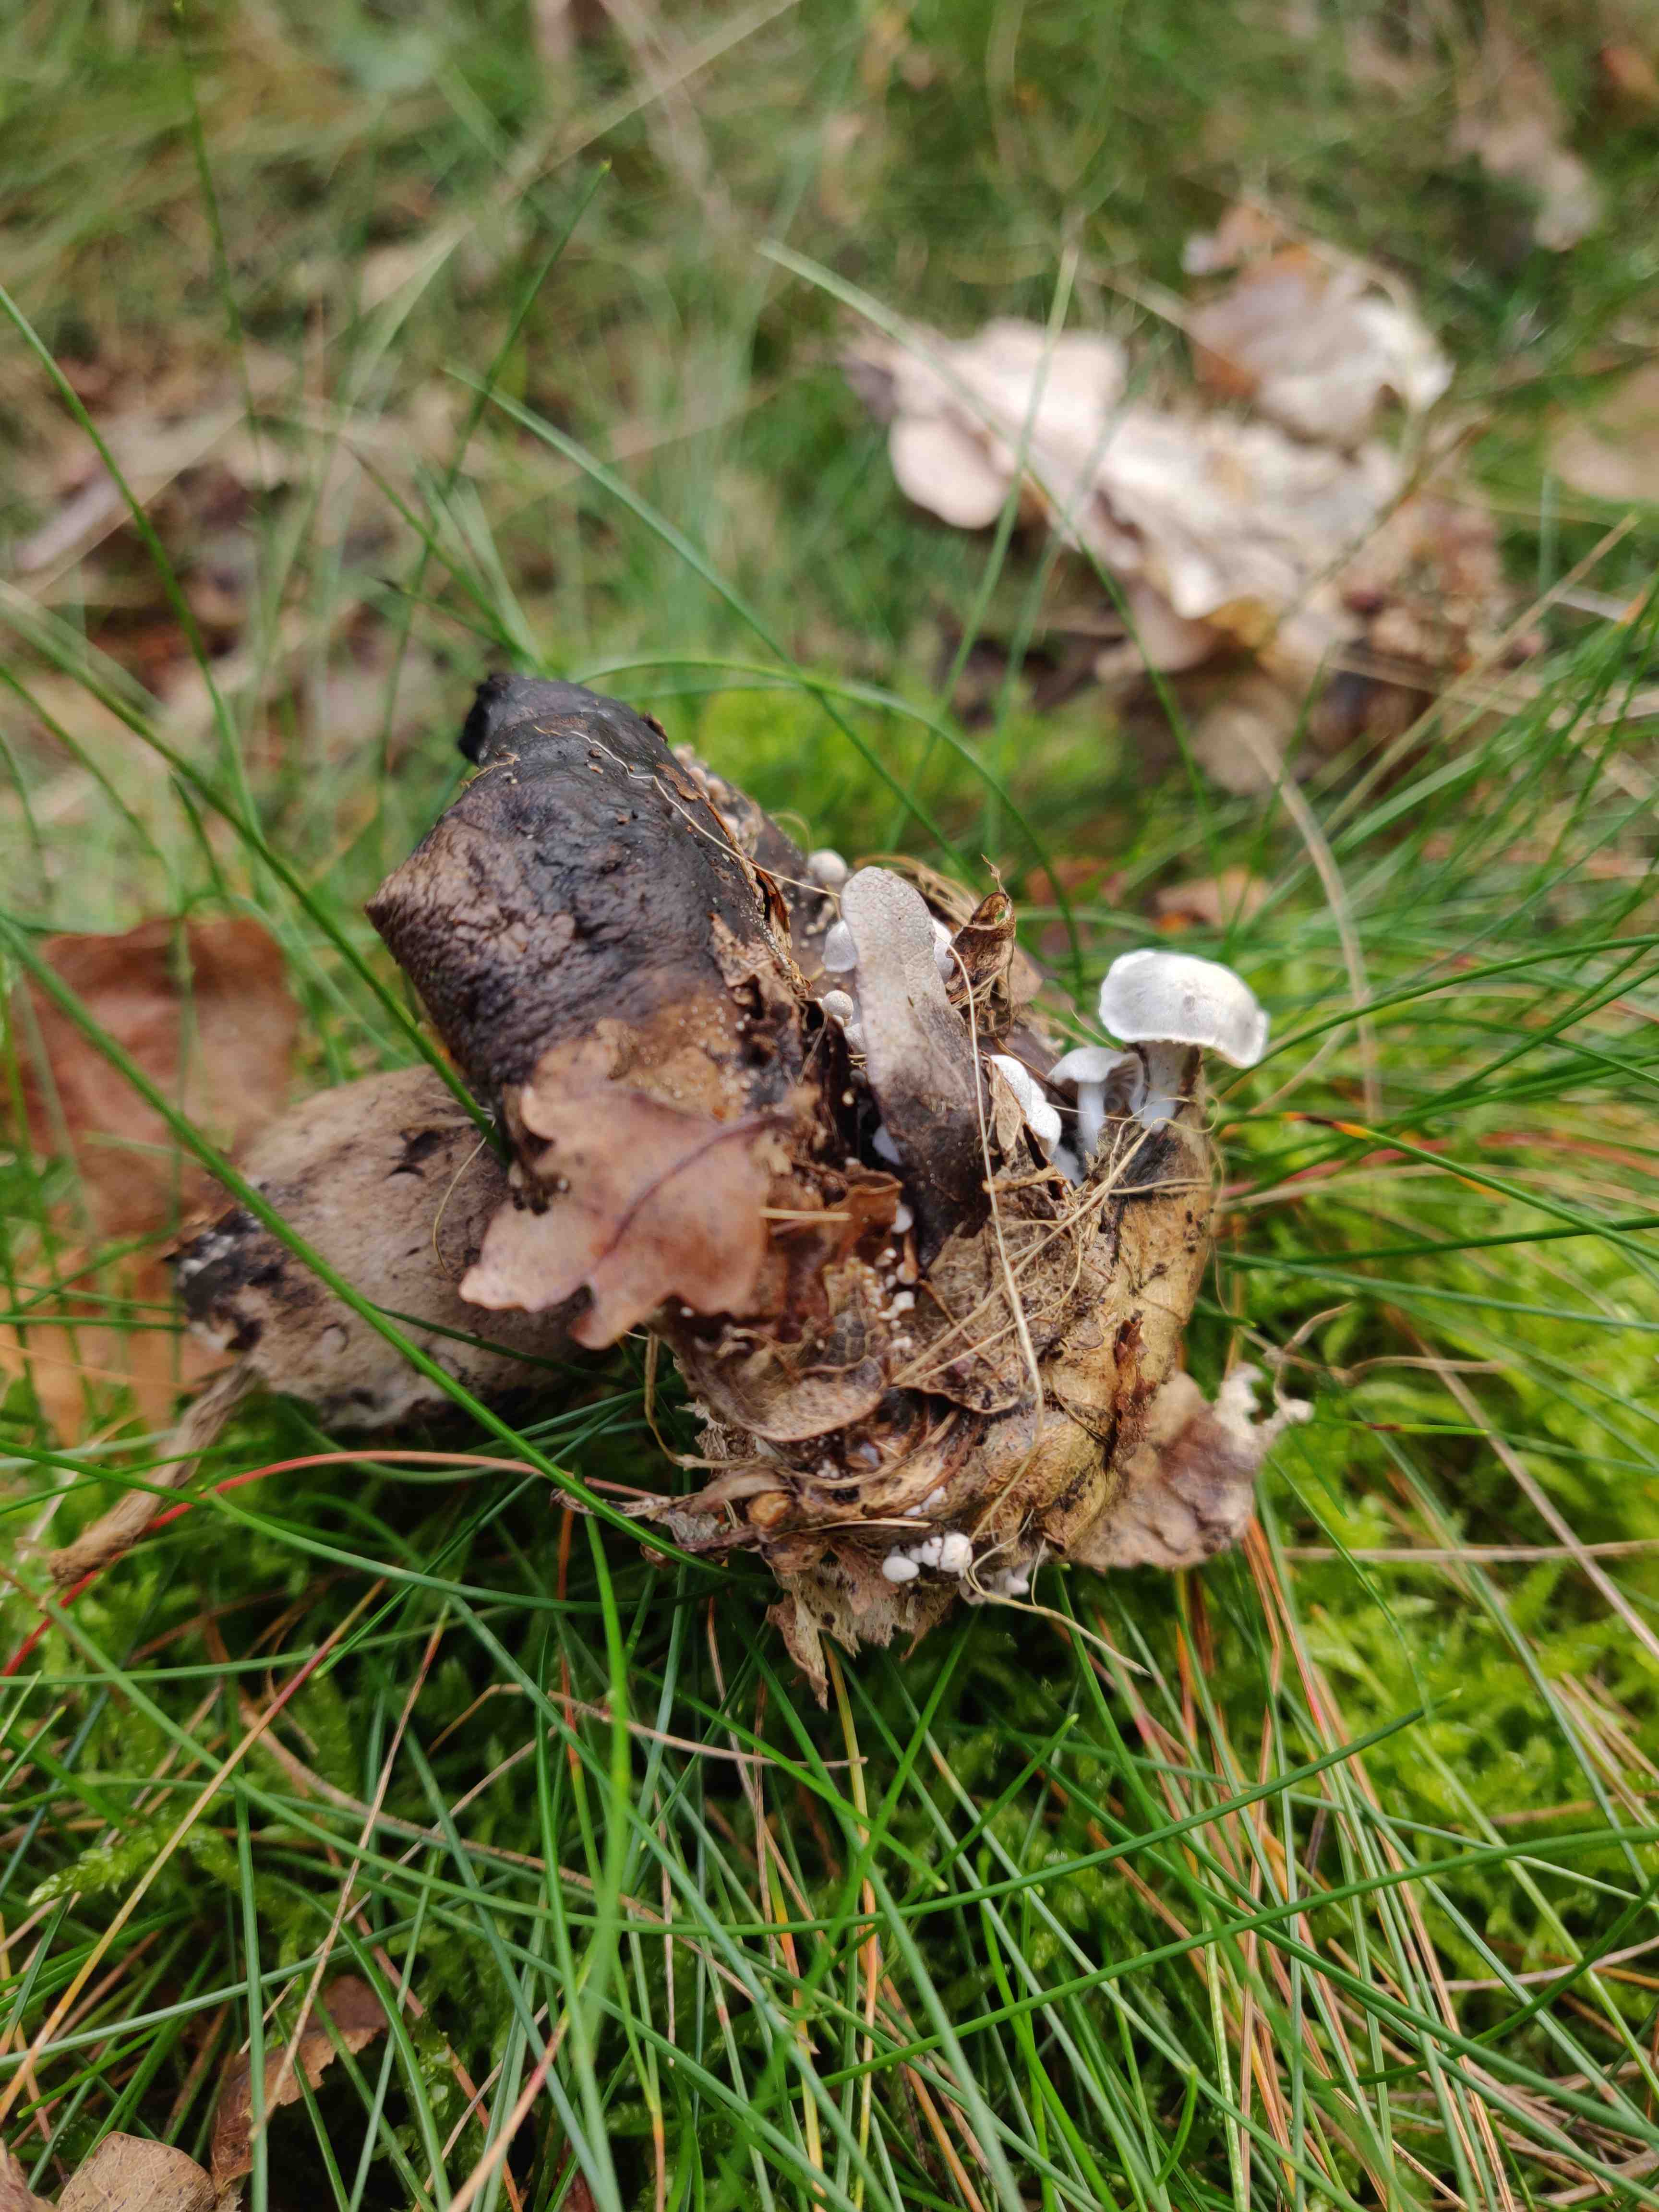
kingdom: Fungi
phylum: Basidiomycota
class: Agaricomycetes
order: Agaricales
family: Lyophyllaceae
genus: Asterophora
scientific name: Asterophora parasitica
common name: grå snyltehat
